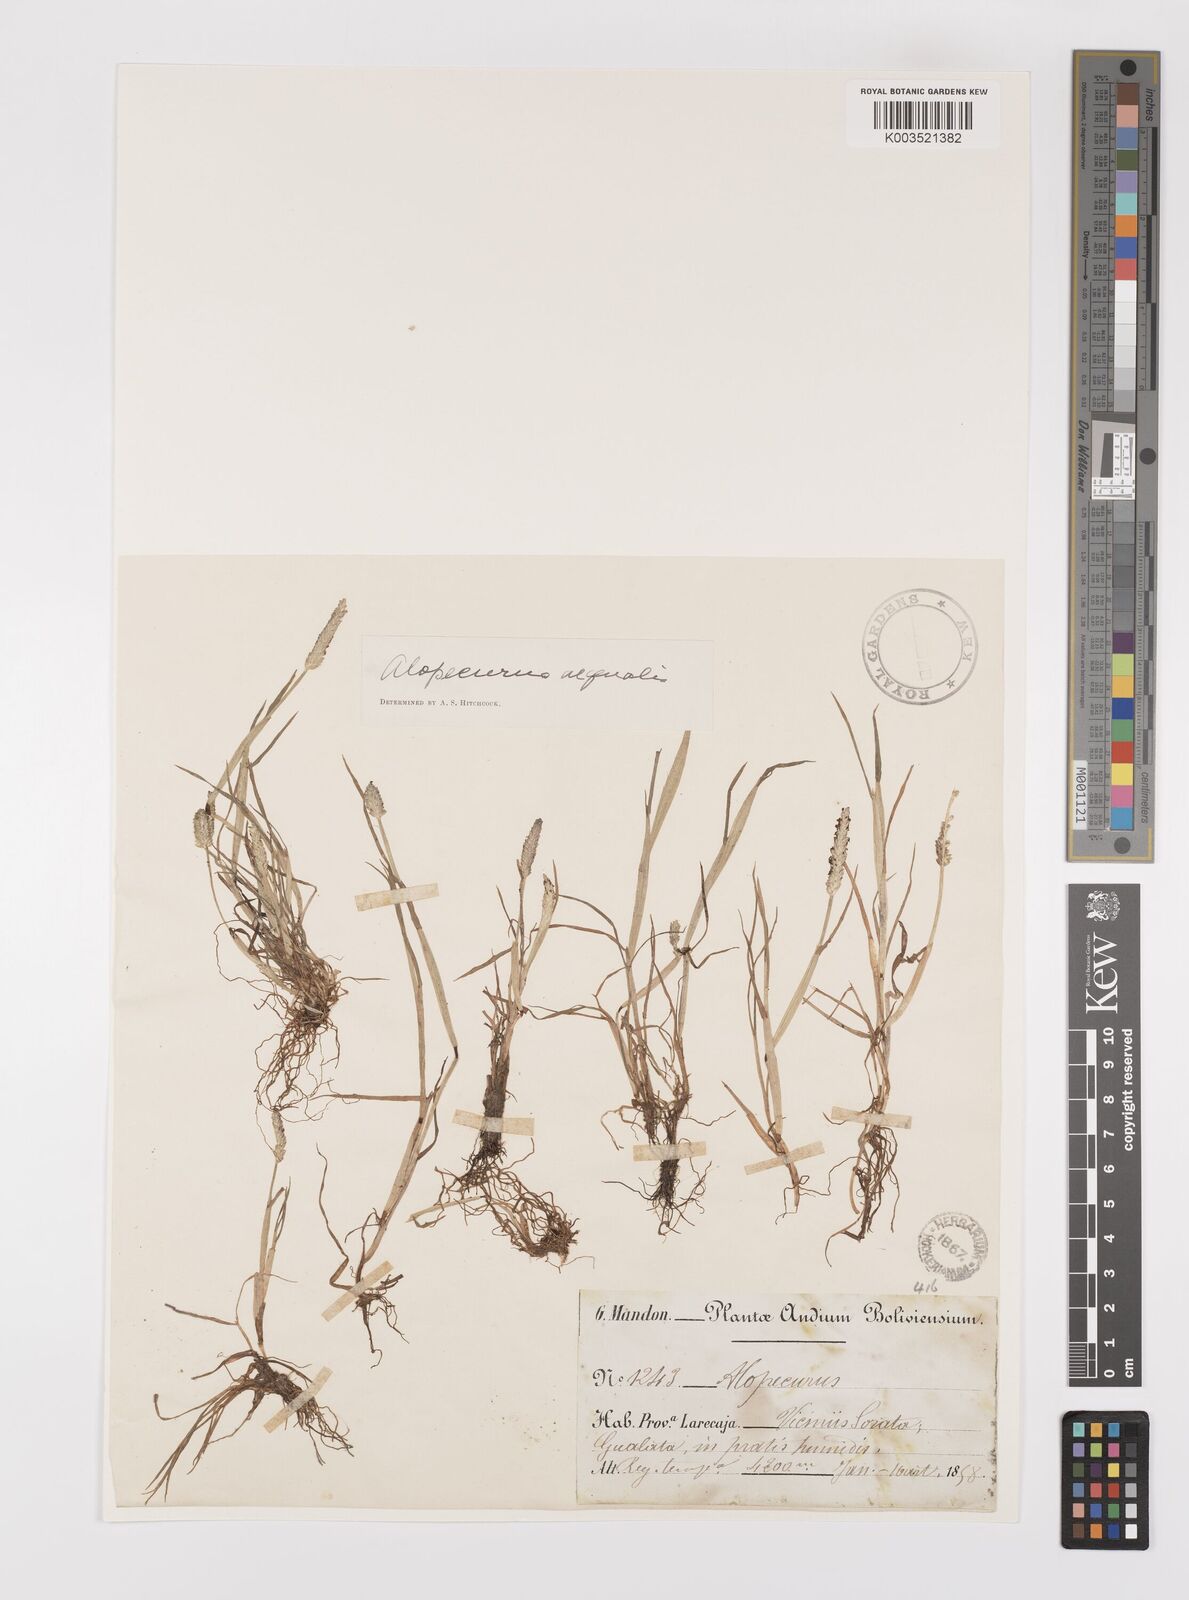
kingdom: Plantae
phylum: Tracheophyta
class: Liliopsida
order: Poales
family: Poaceae
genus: Alopecurus
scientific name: Alopecurus hitchcockii
